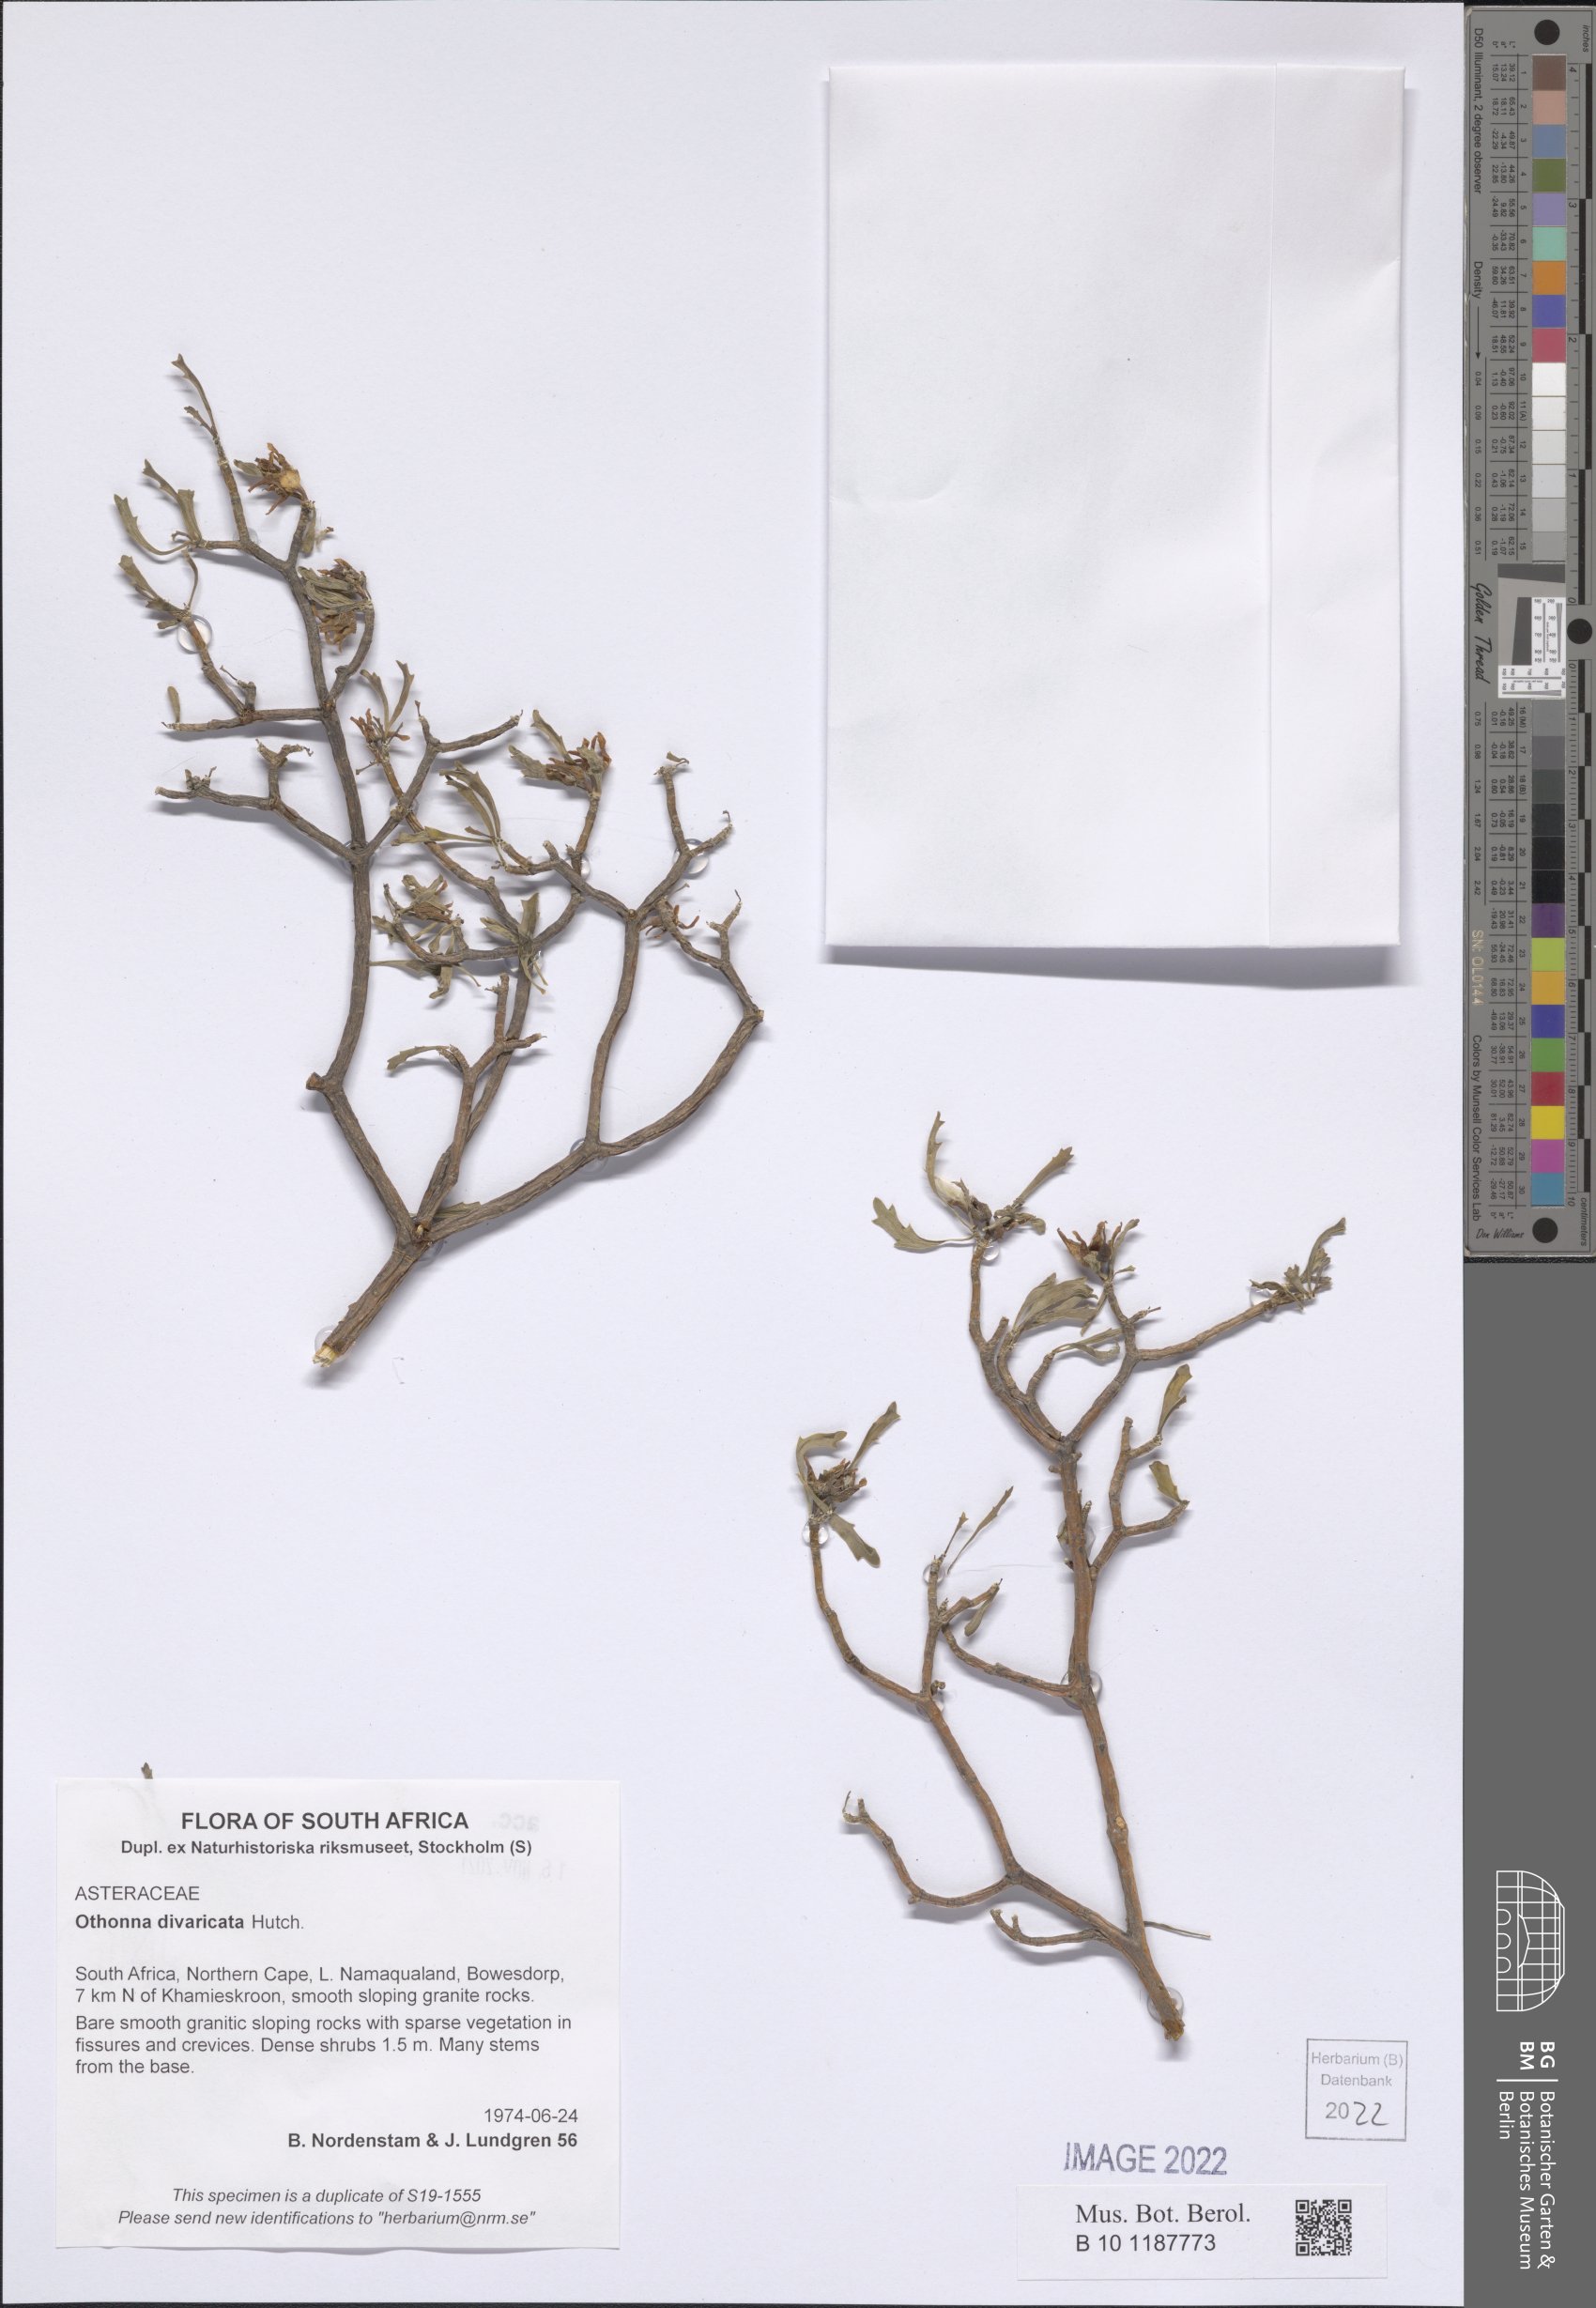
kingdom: Plantae
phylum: Tracheophyta
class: Magnoliopsida
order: Asterales
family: Asteraceae
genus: Othonna
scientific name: Othonna divaricata
